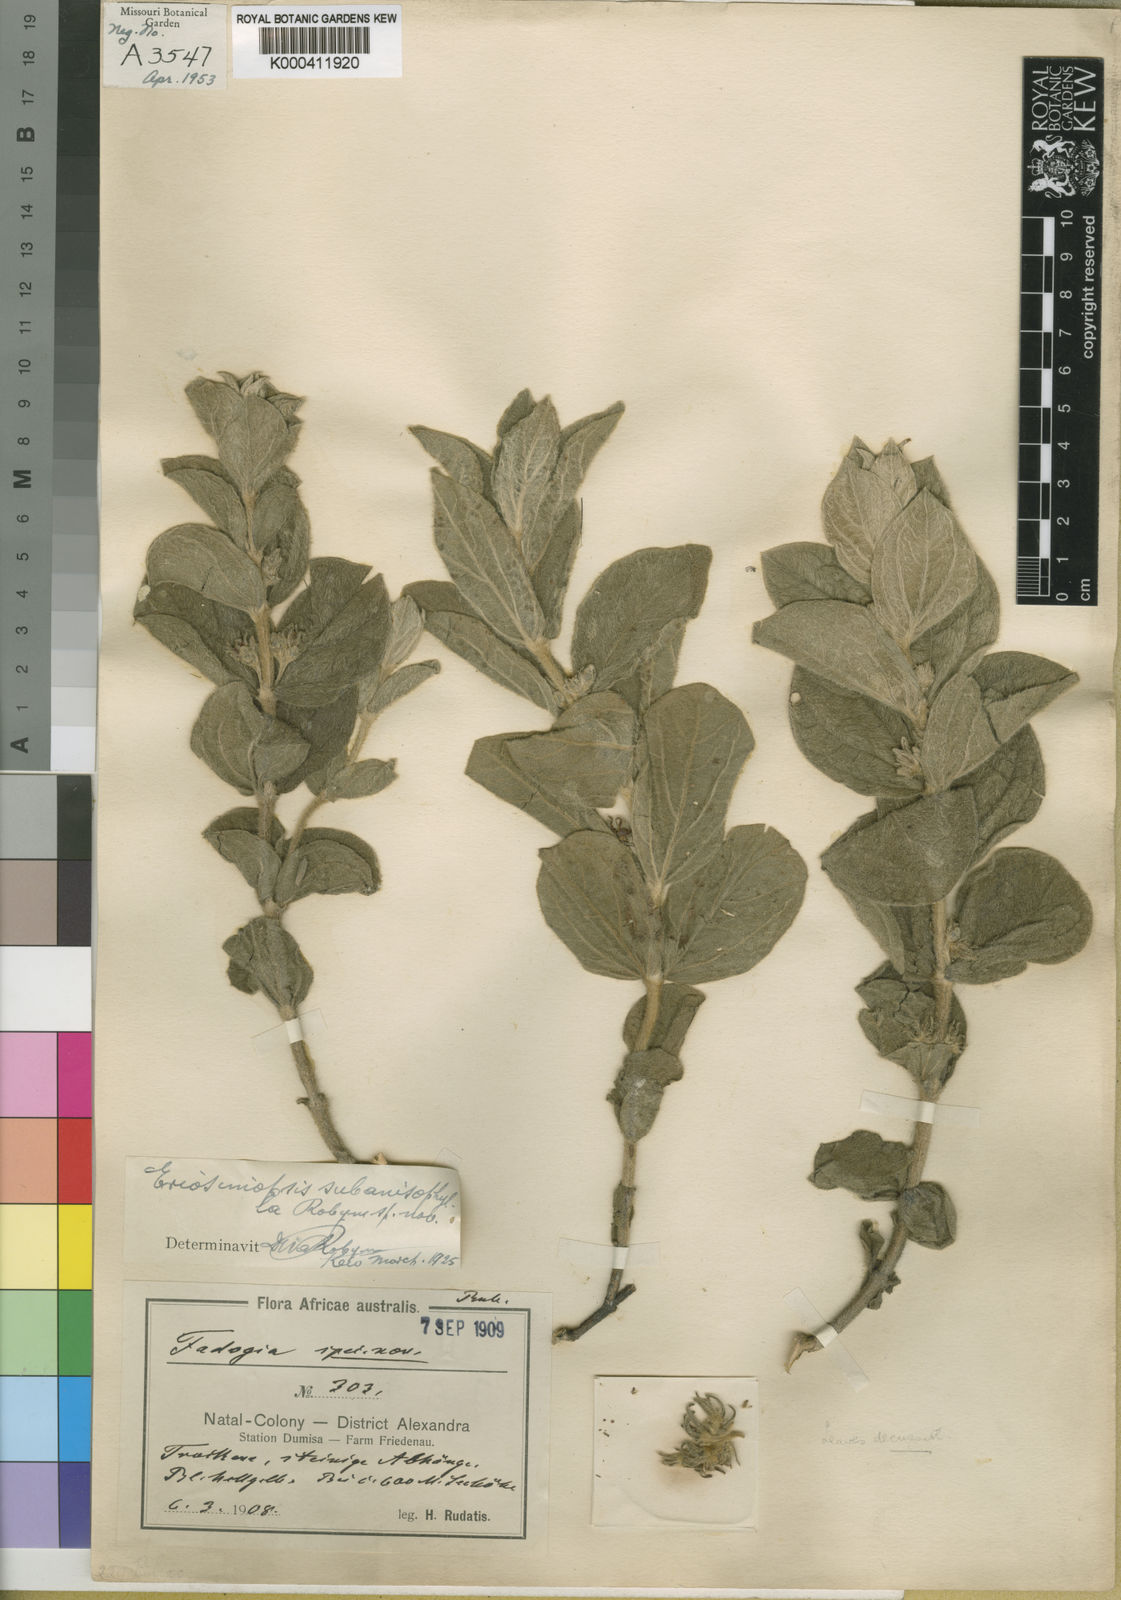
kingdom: Plantae
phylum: Tracheophyta
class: Magnoliopsida
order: Gentianales
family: Rubiaceae
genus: Pygmaeothamnus
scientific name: Pygmaeothamnus
